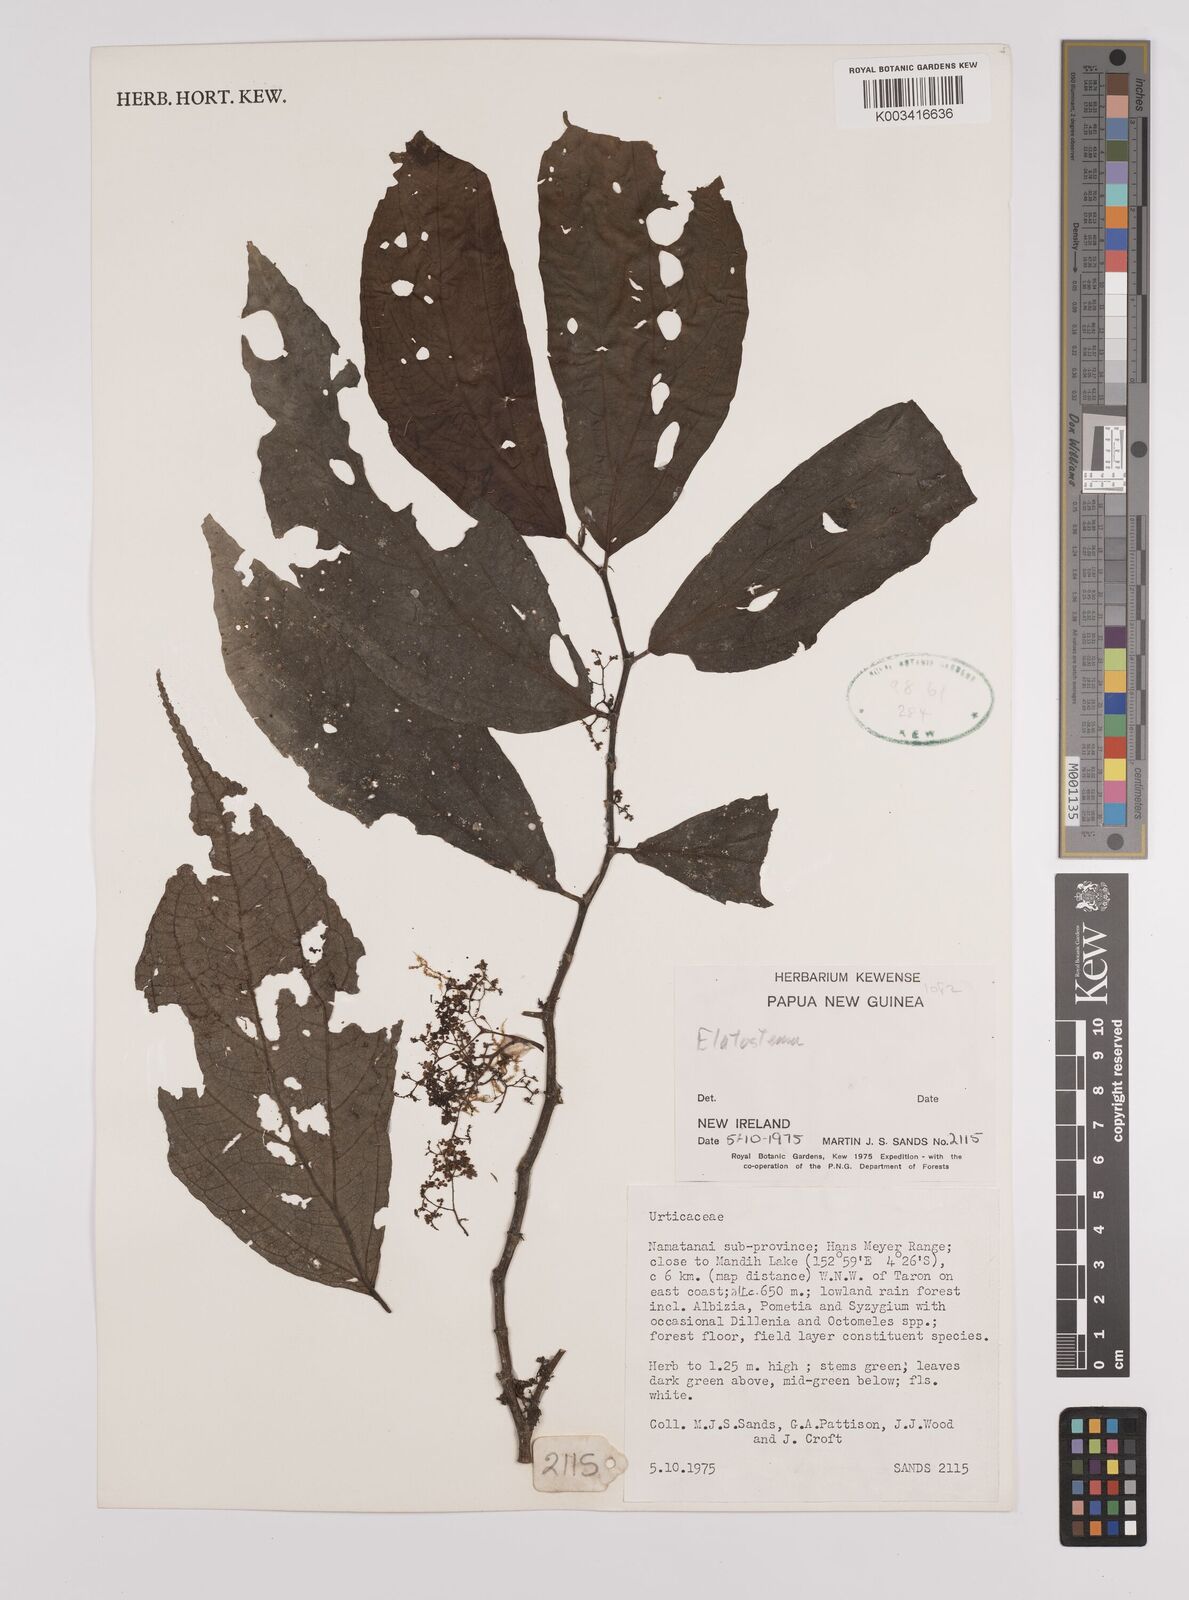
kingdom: Plantae
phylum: Tracheophyta
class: Magnoliopsida
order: Rosales
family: Urticaceae
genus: Elatostema
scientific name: Elatostema
